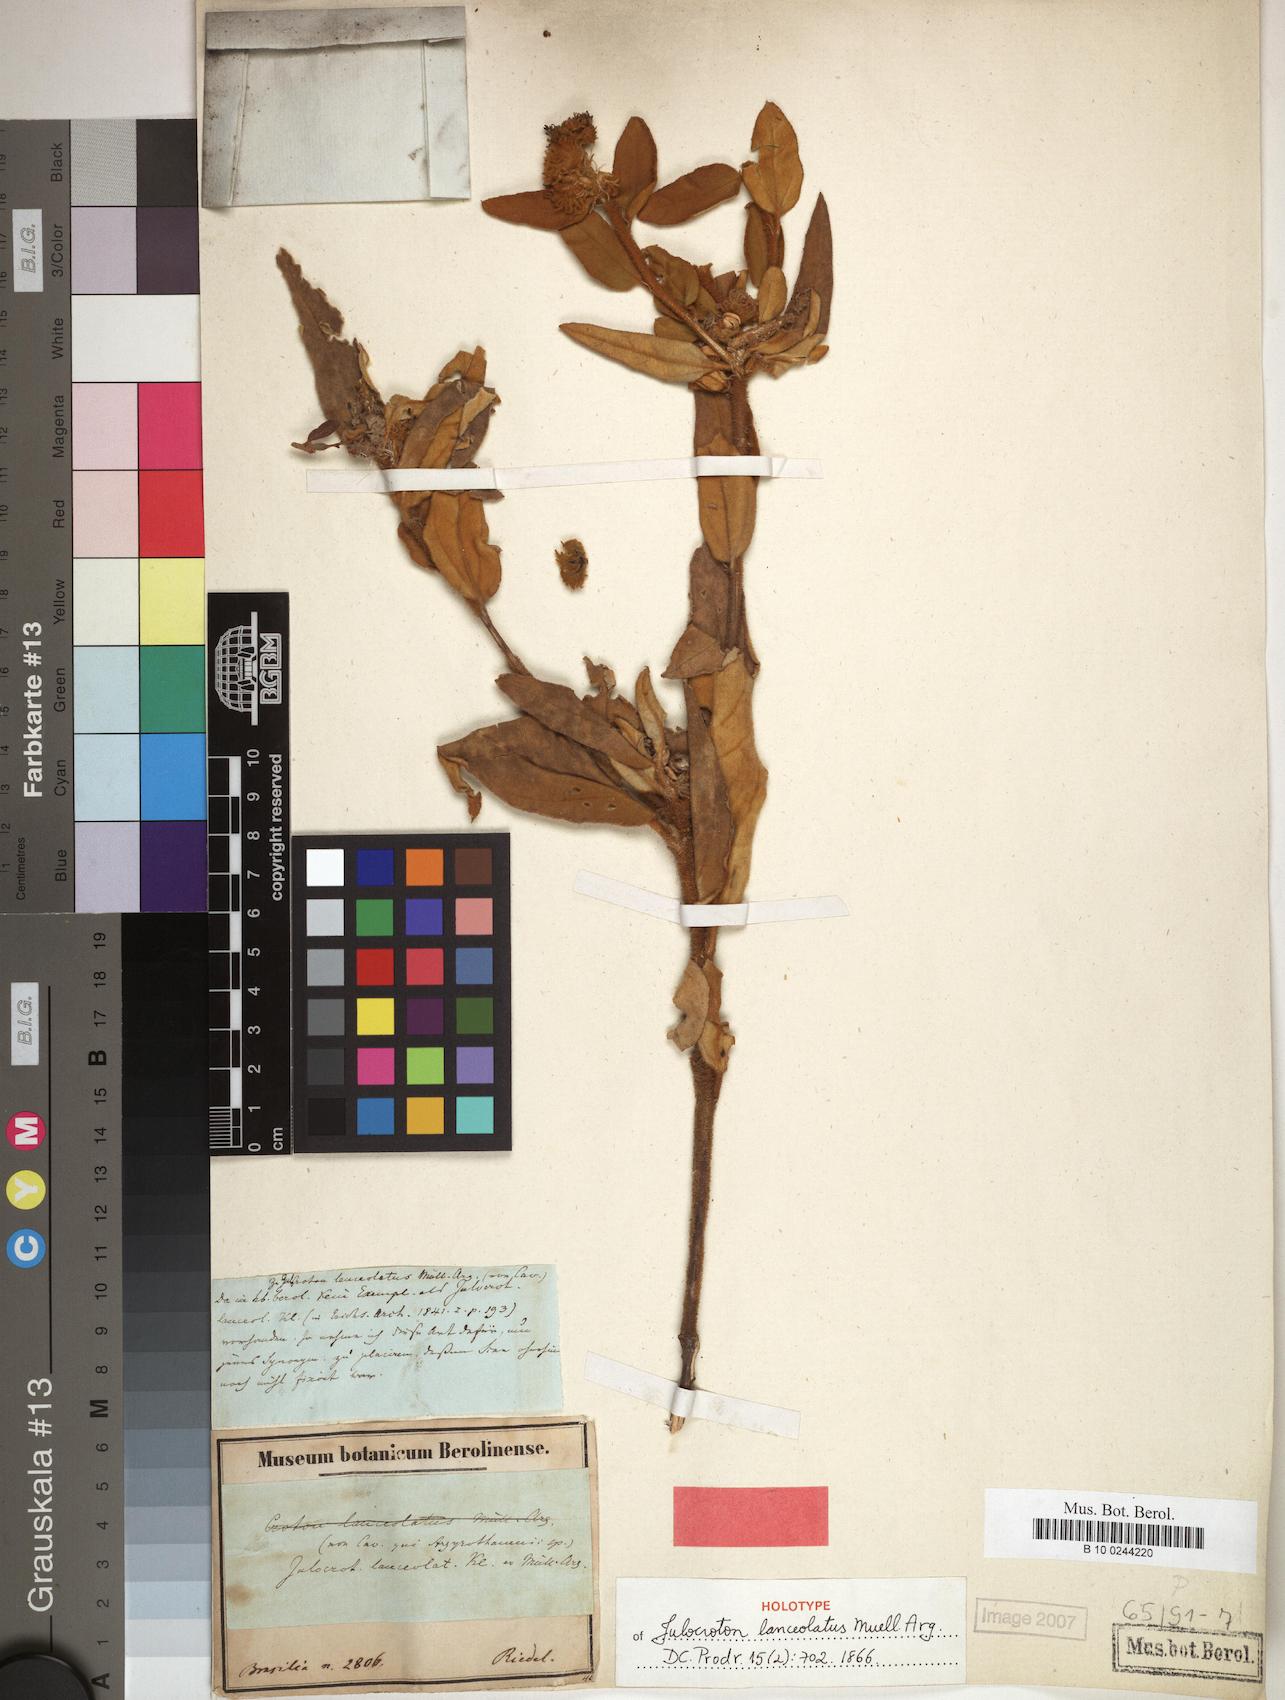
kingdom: Plantae
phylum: Tracheophyta
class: Magnoliopsida
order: Malpighiales
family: Euphorbiaceae
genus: Croton
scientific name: Croton solanaceus
